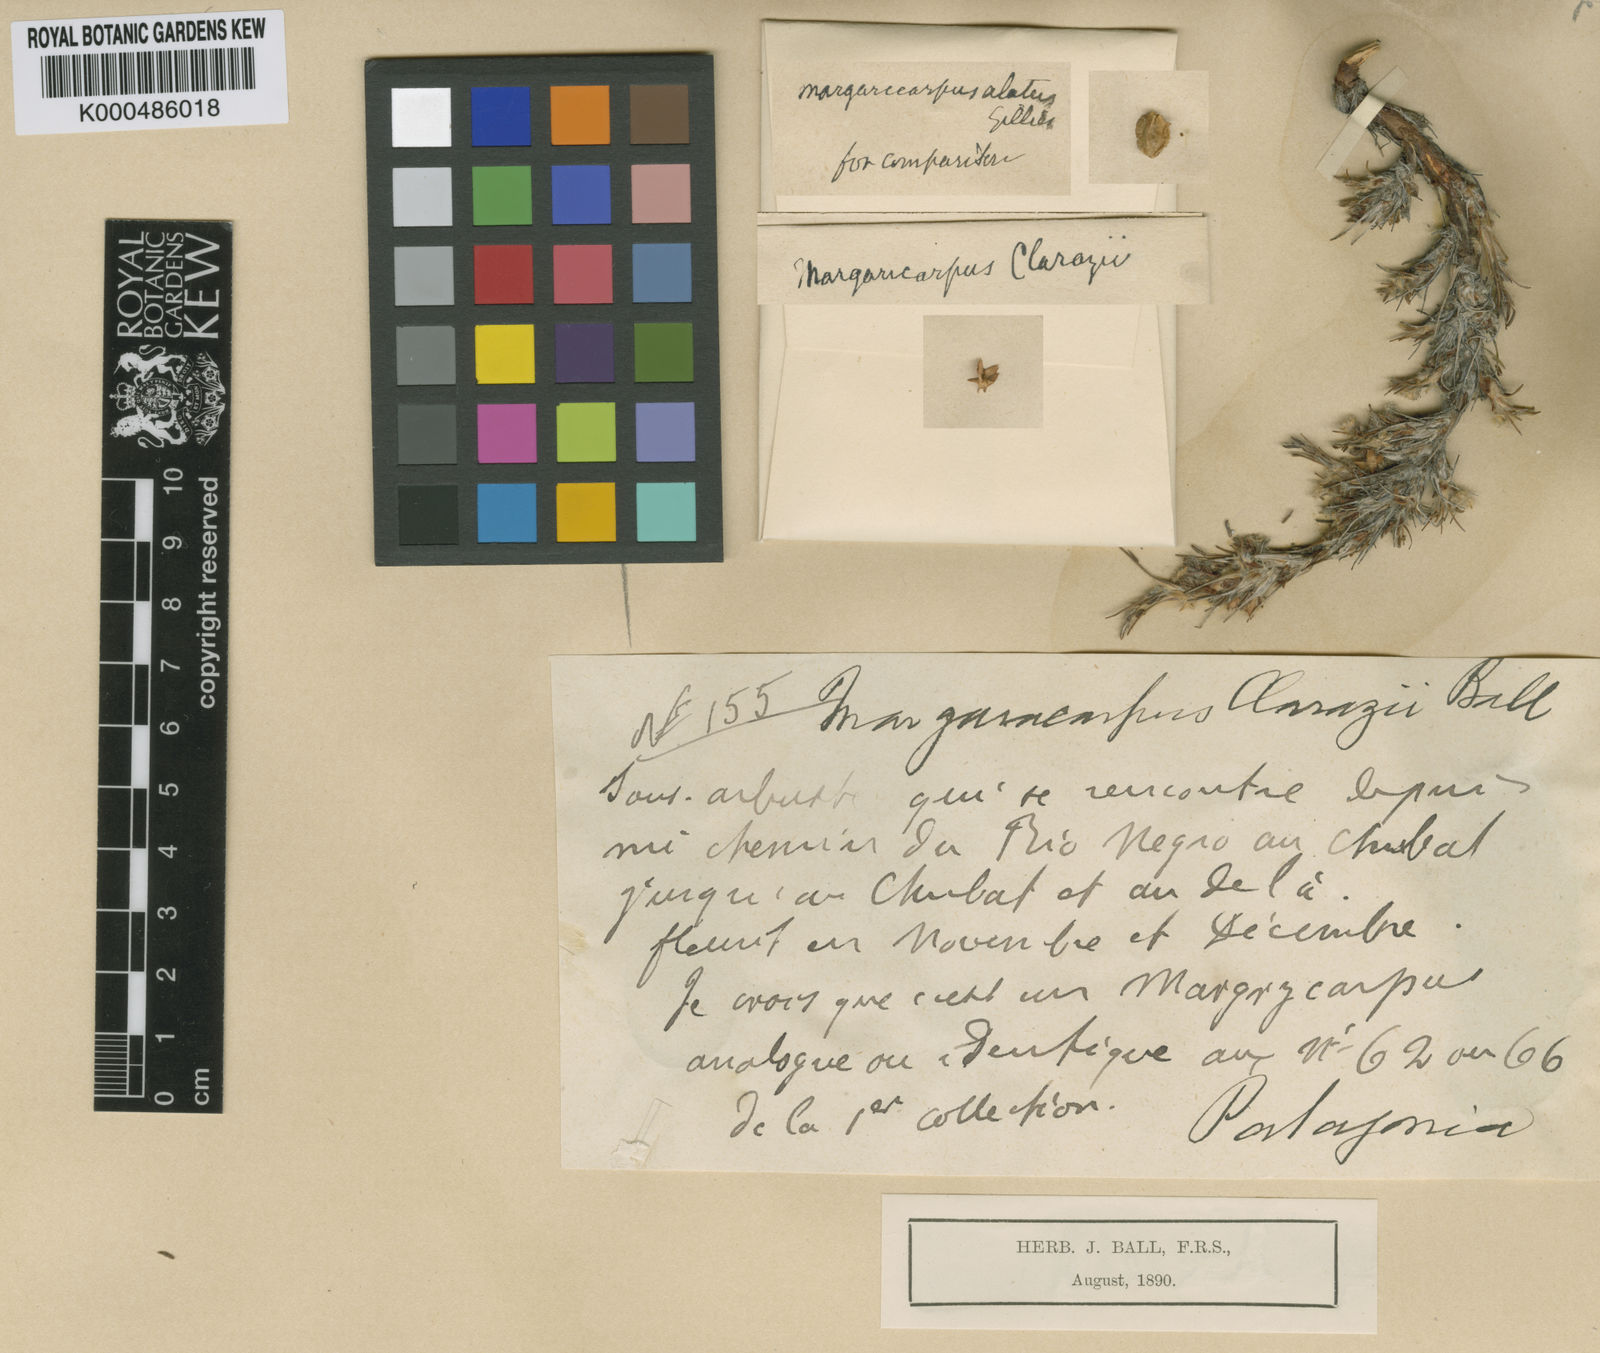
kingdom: Plantae
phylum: Tracheophyta
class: Magnoliopsida
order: Rosales
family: Rosaceae
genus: Margyricarpus
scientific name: Margyricarpus caespitosus
